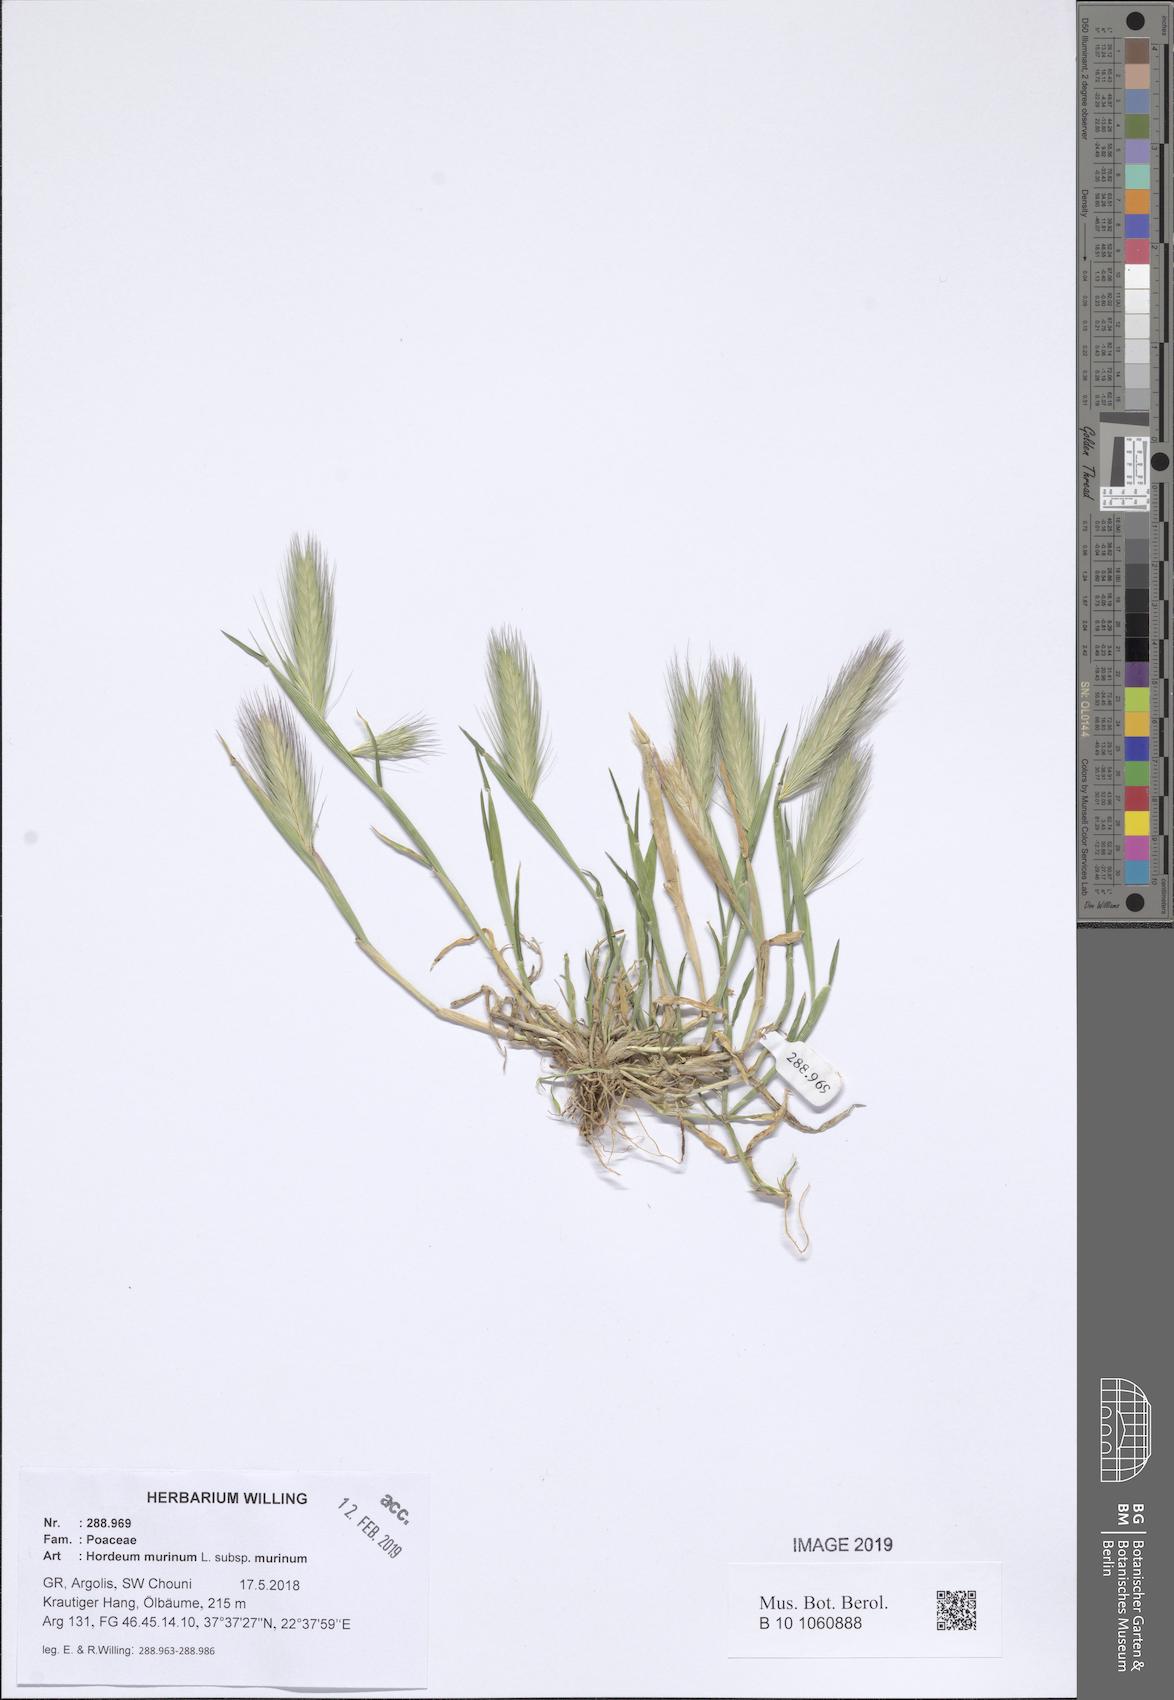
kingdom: Plantae
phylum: Tracheophyta
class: Liliopsida
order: Poales
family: Poaceae
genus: Hordeum
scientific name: Hordeum murinum
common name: Wall barley
